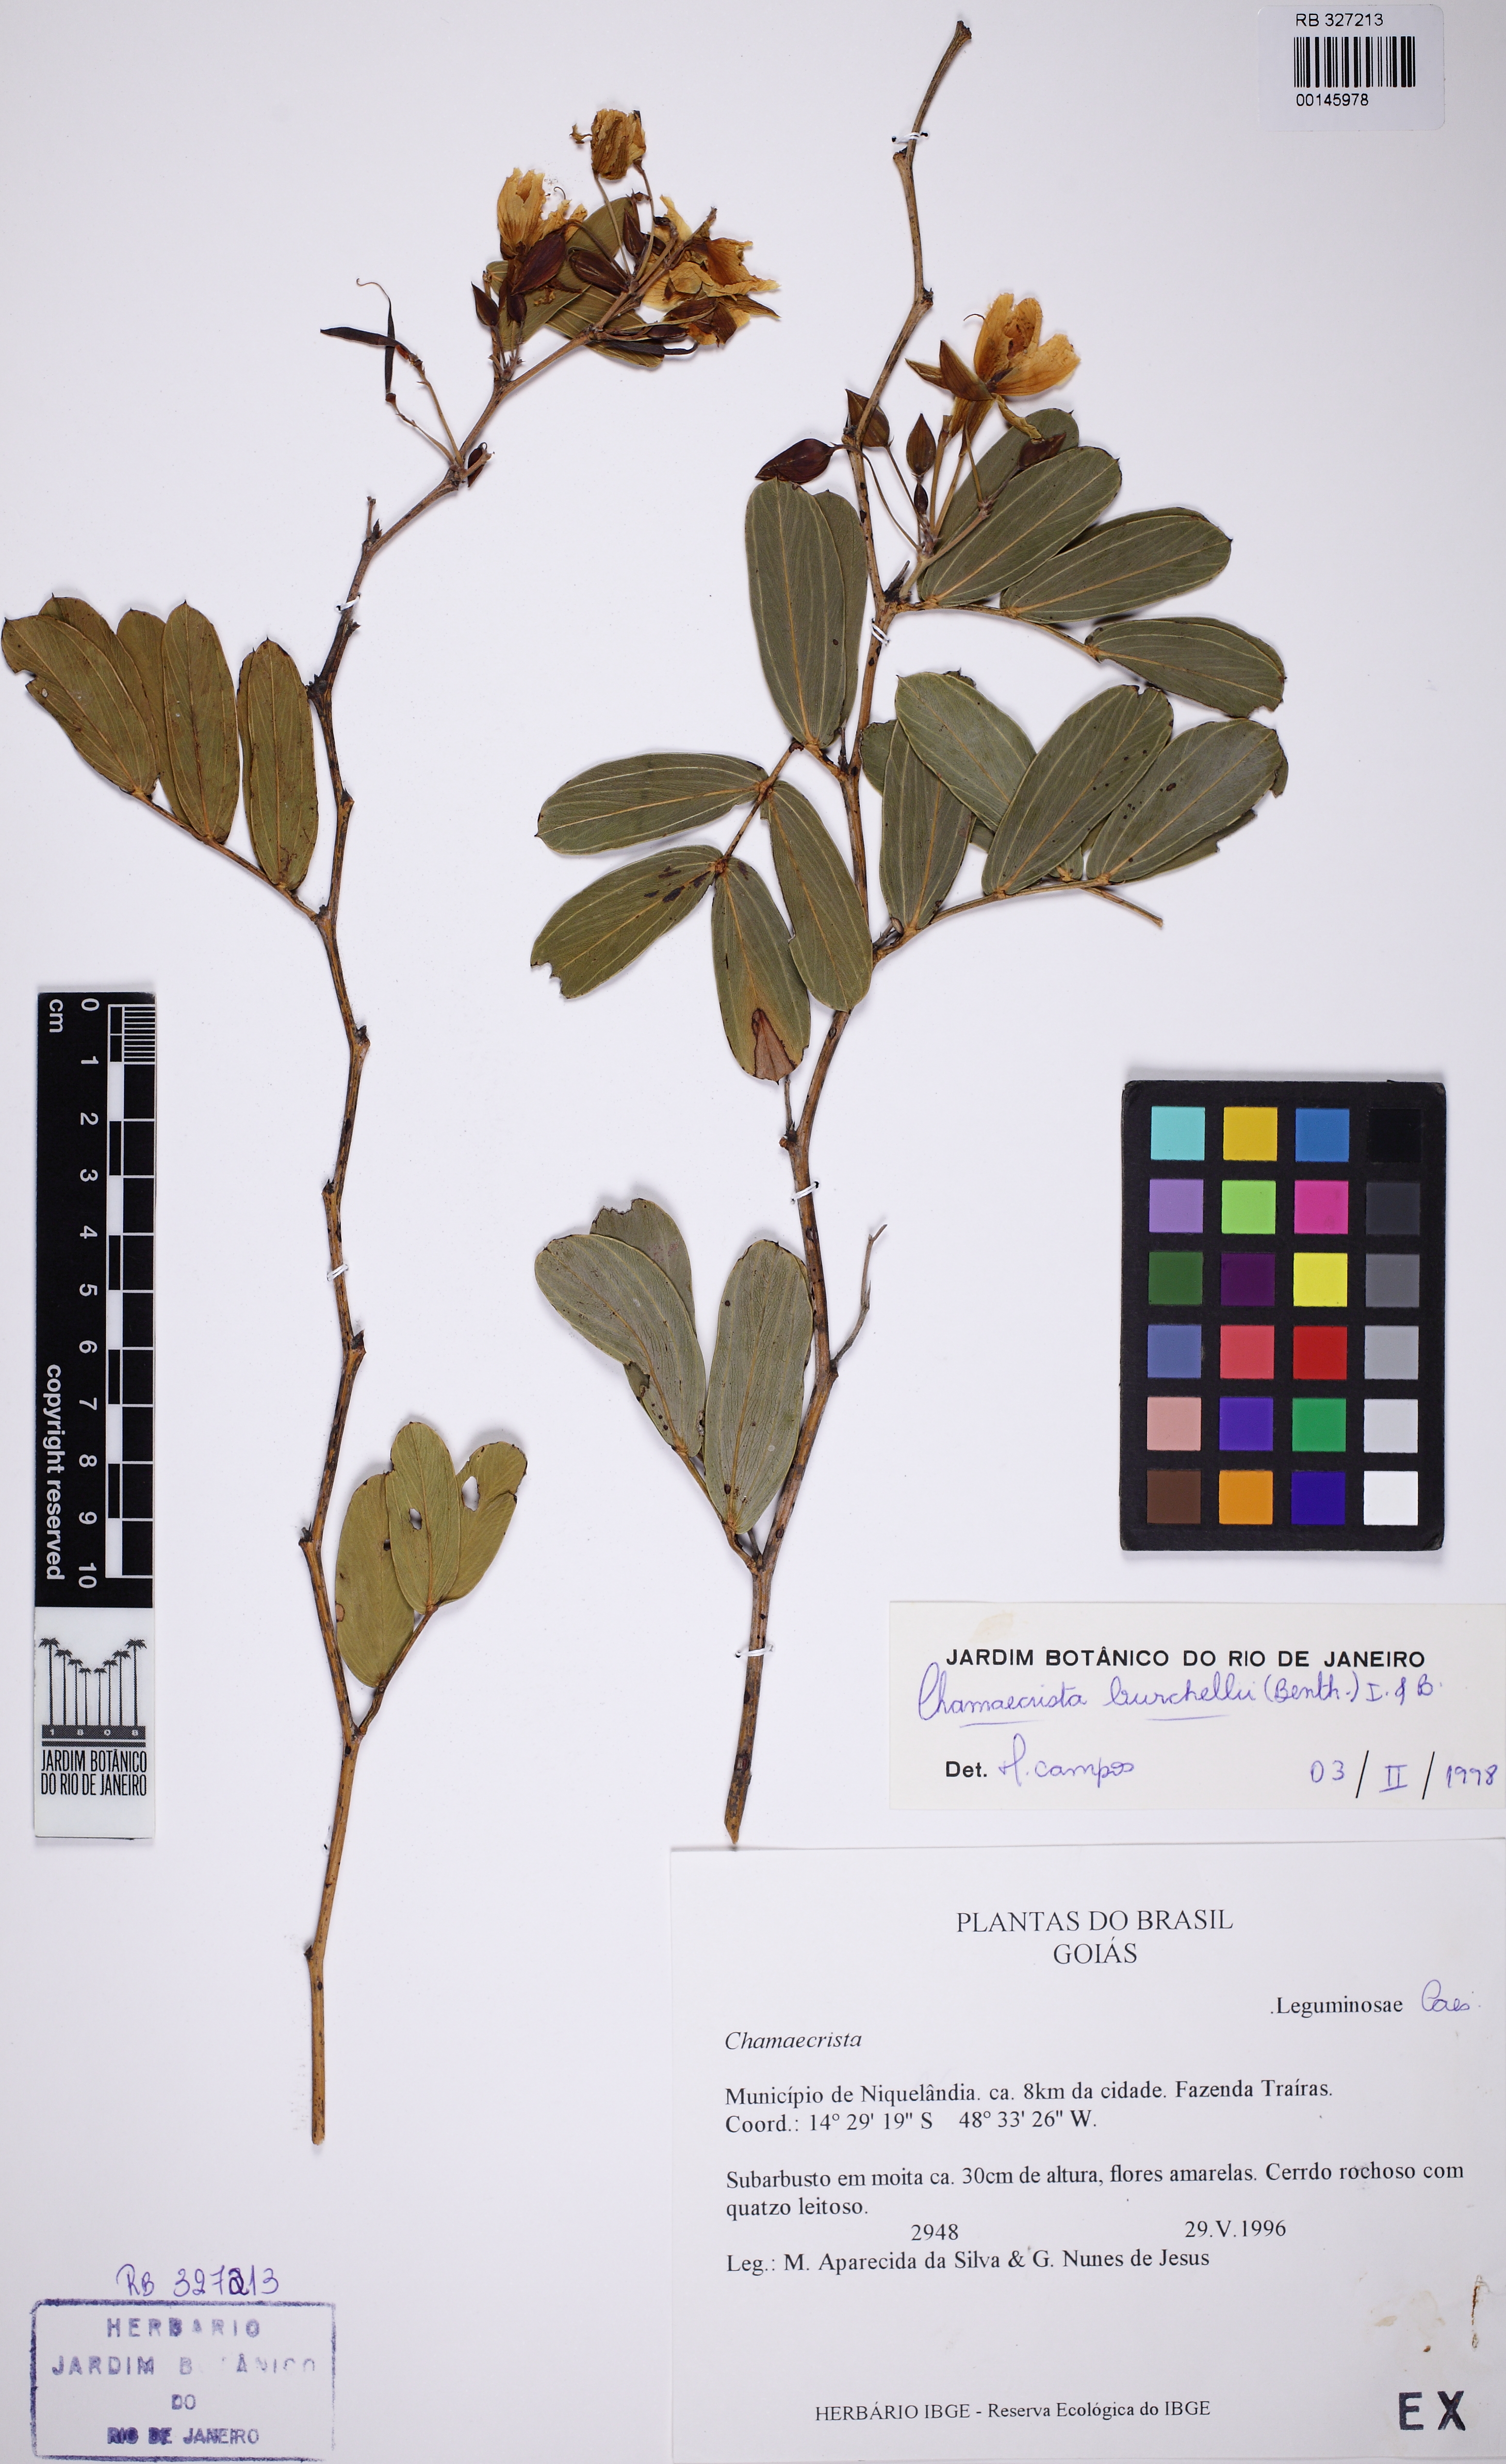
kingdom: Plantae
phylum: Tracheophyta
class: Magnoliopsida
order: Fabales
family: Fabaceae
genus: Chamaecrista
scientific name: Chamaecrista burchellii
